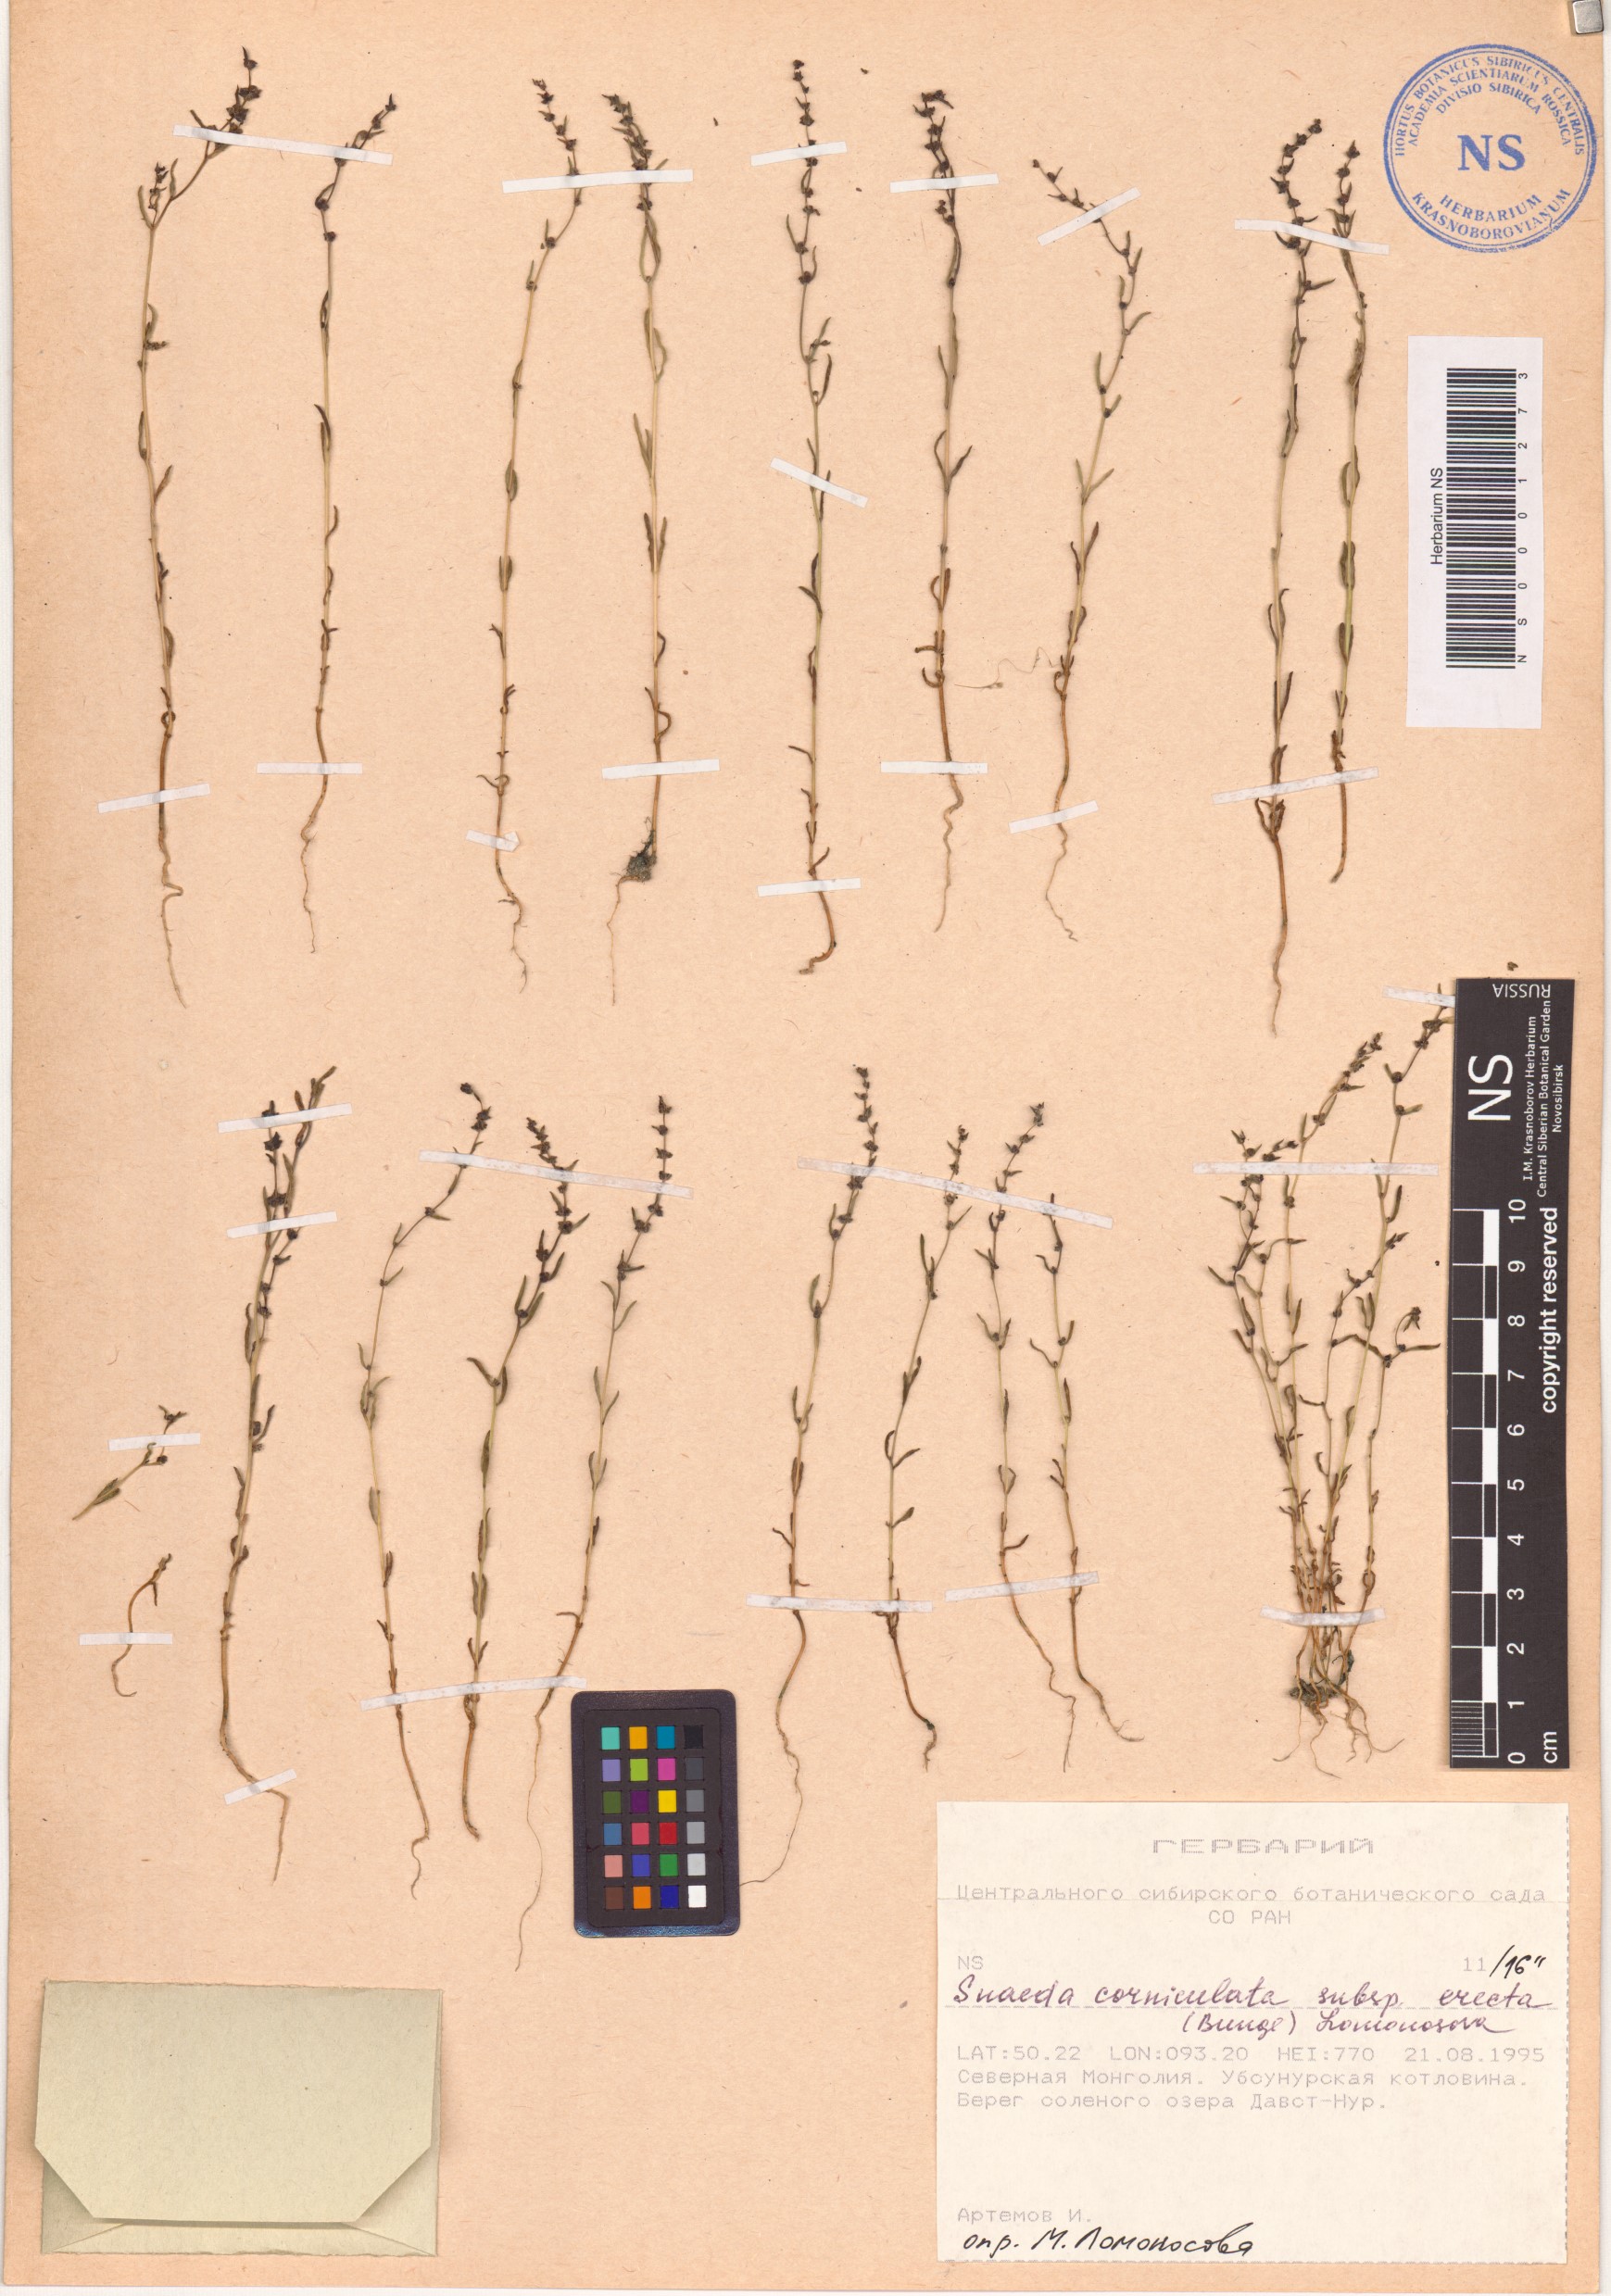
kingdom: Plantae
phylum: Tracheophyta
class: Magnoliopsida
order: Caryophyllales
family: Amaranthaceae
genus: Suaeda
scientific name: Suaeda corniculata
